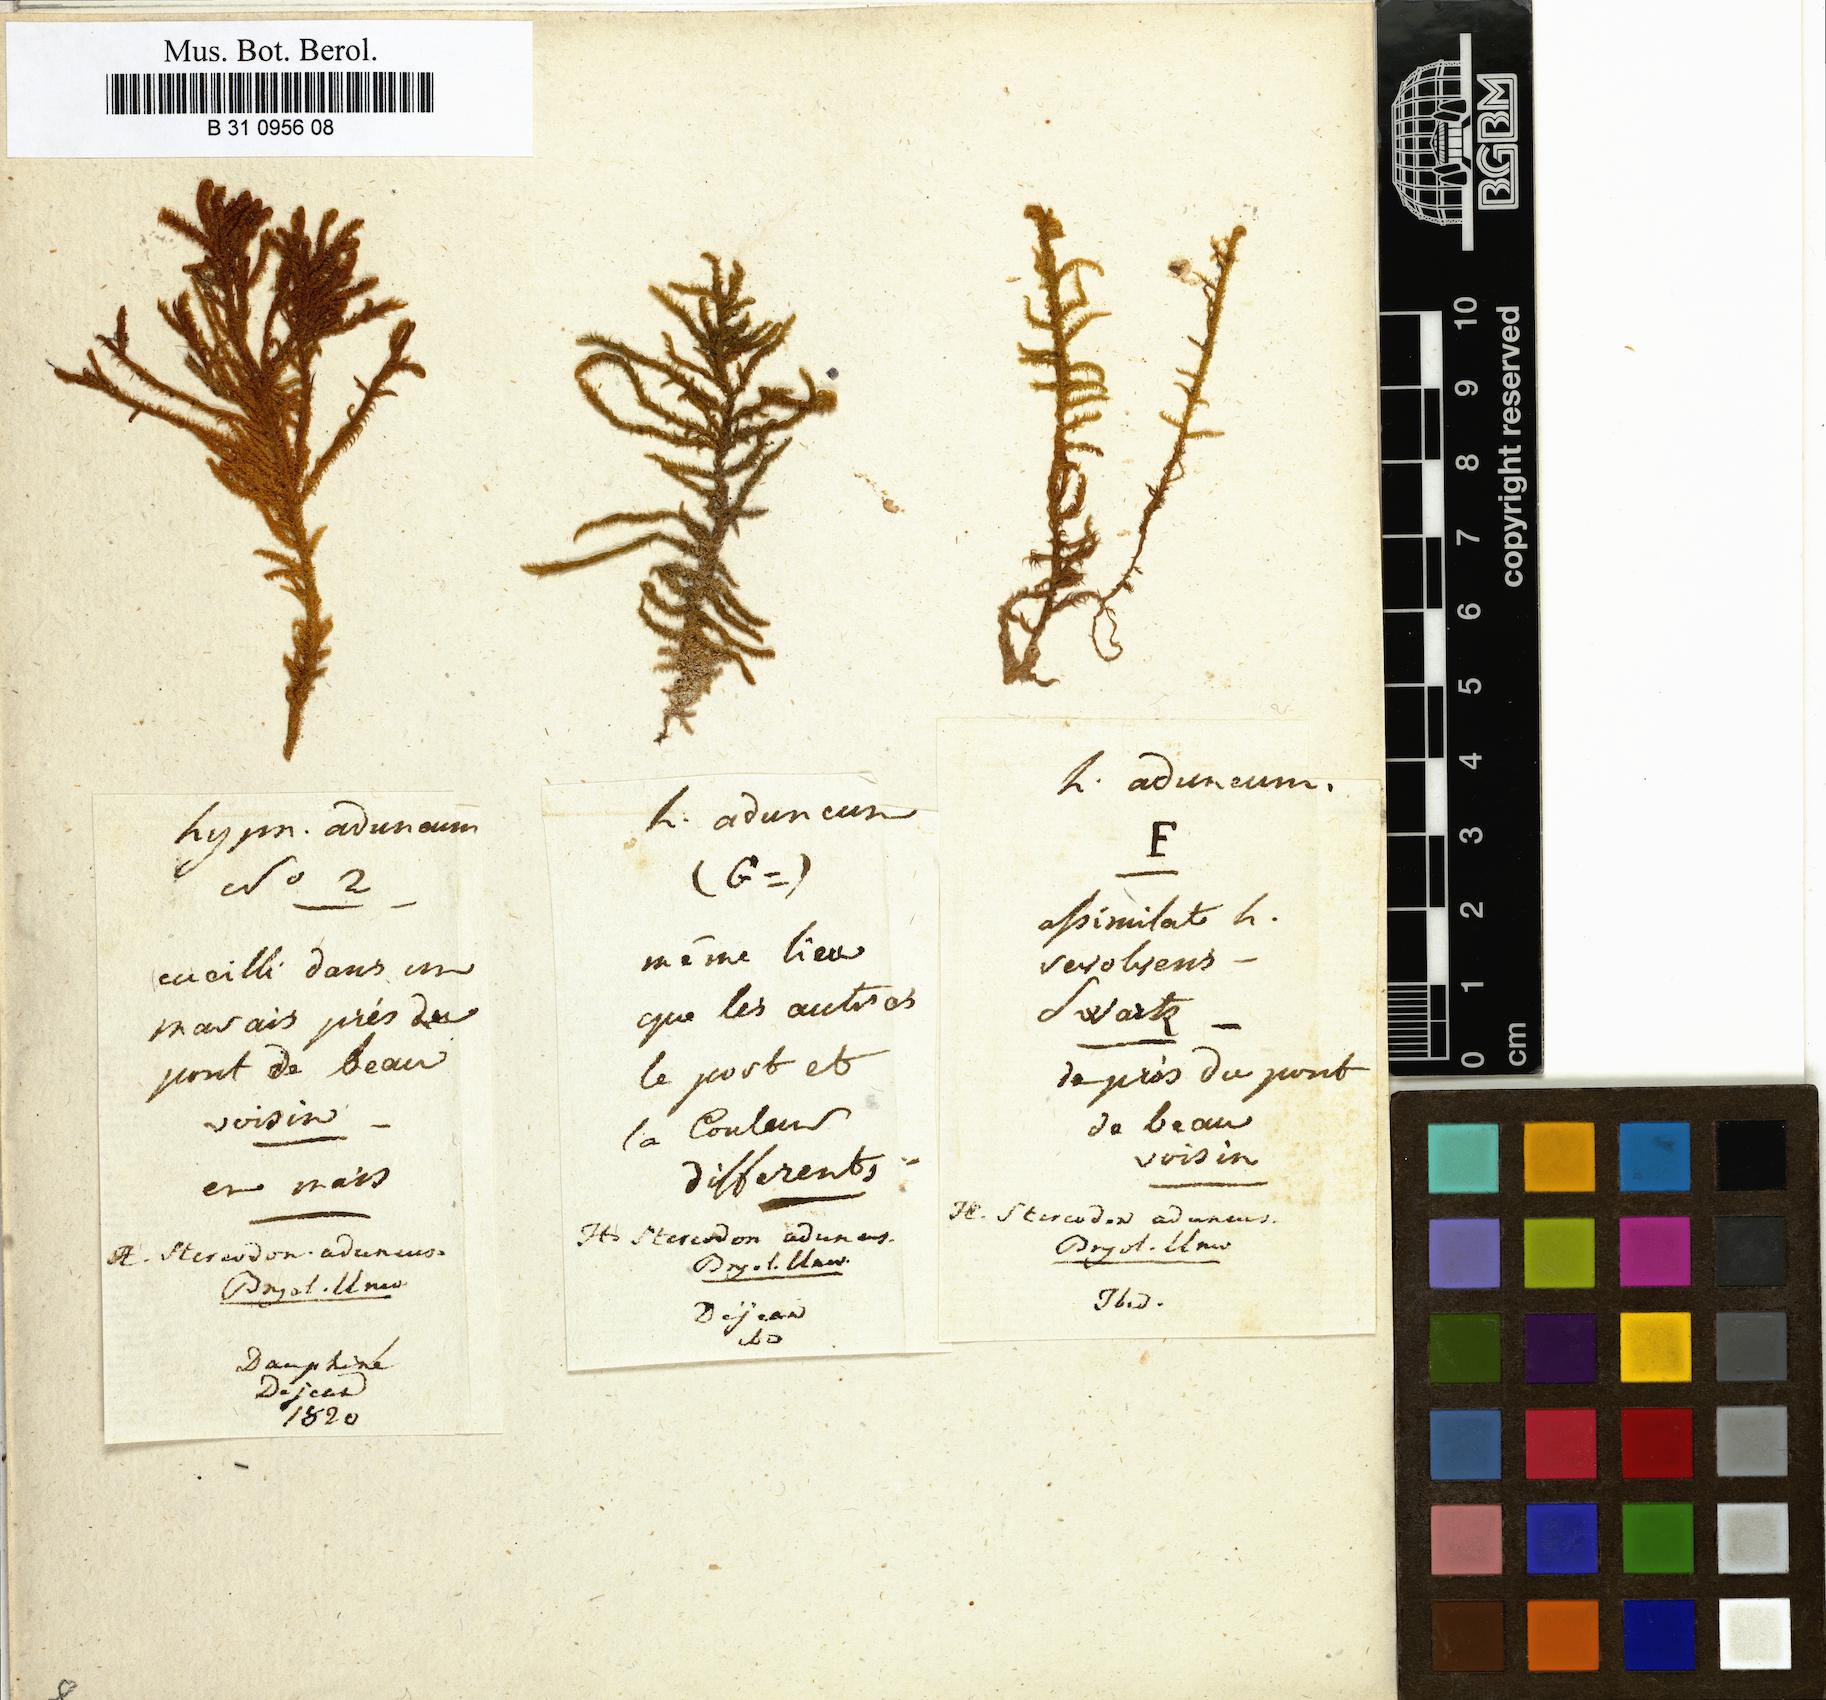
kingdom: Plantae
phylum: Bryophyta
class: Bryopsida
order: Hypnales
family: Amblystegiaceae
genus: Drepanocladus
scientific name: Drepanocladus aduncus
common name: Knieff's hook moss
